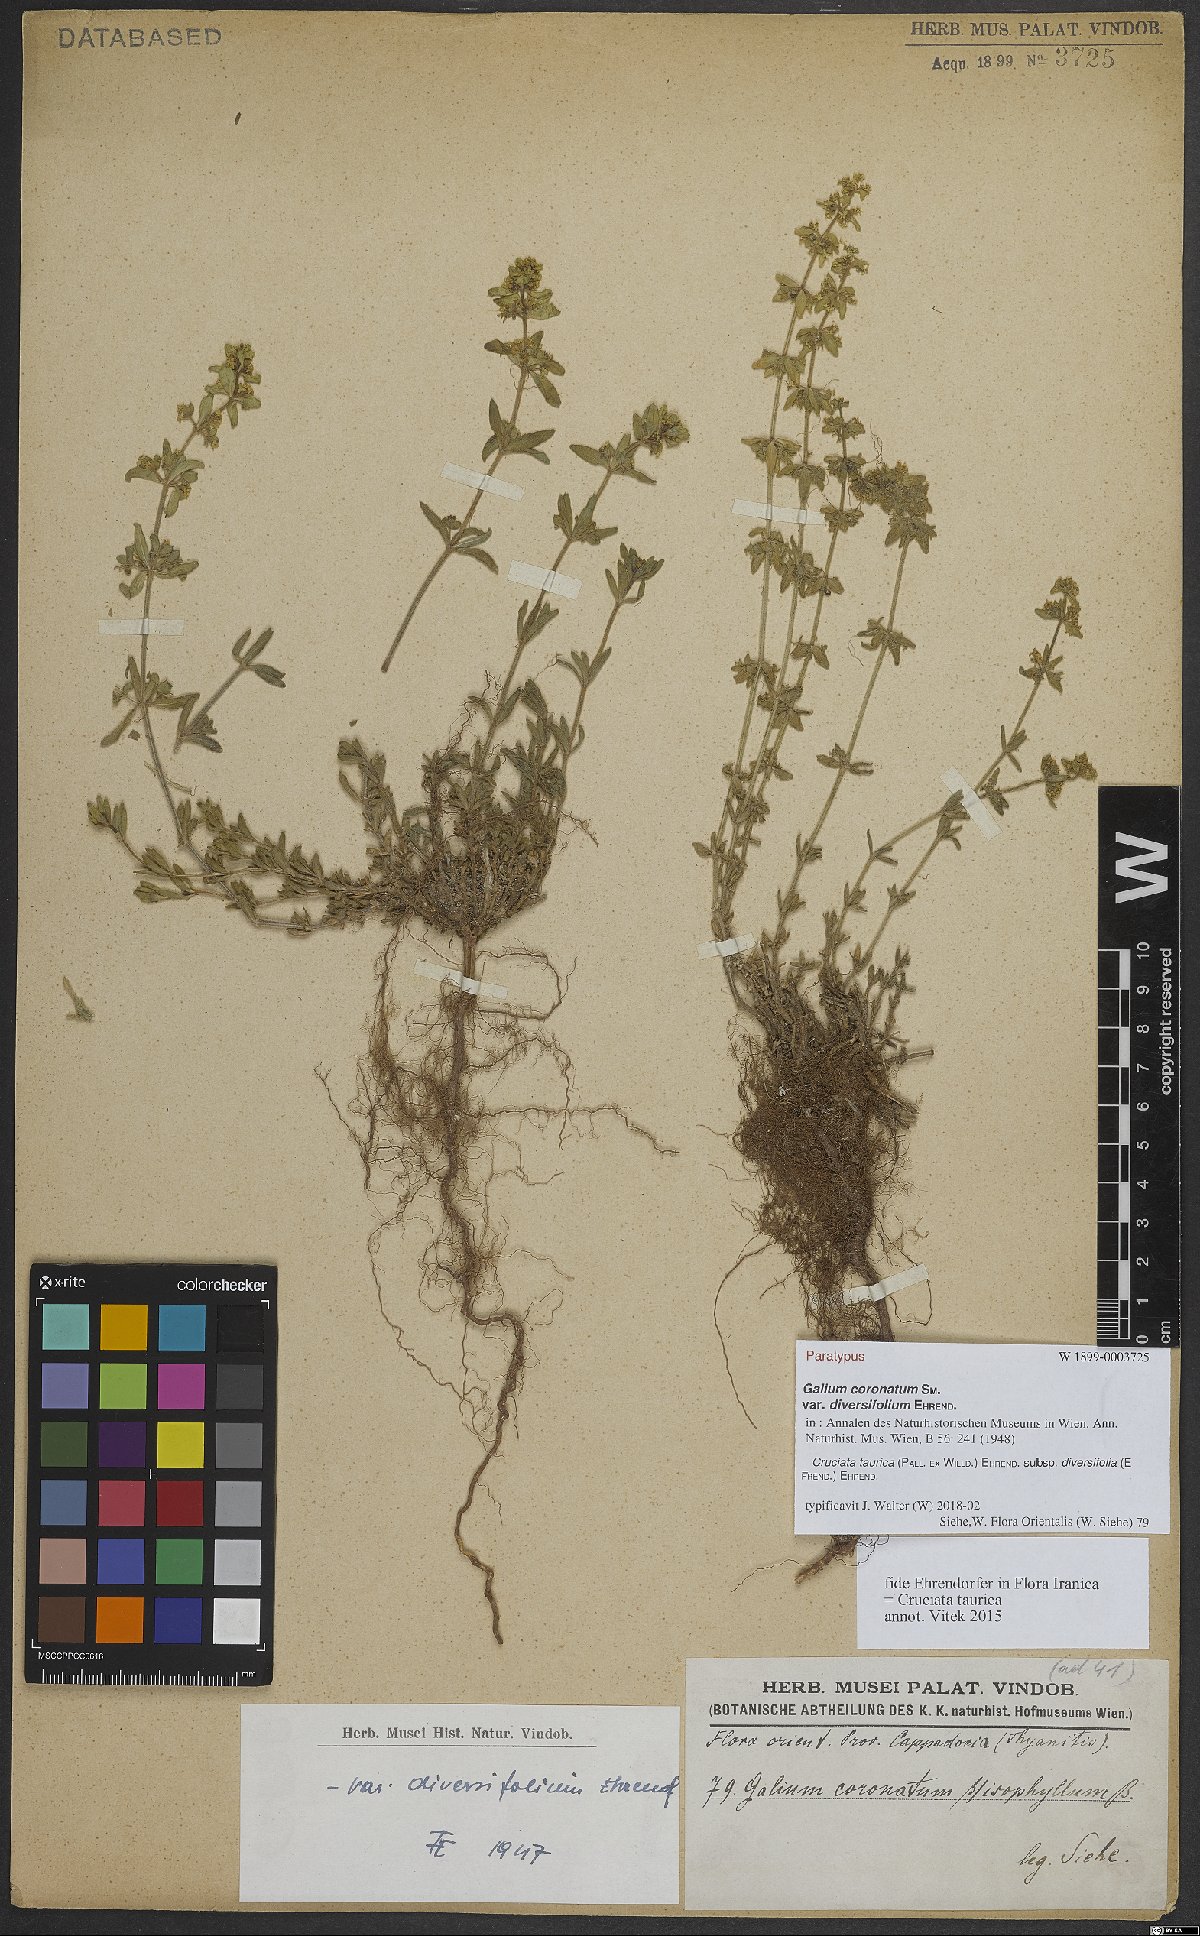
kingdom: Plantae
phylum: Tracheophyta
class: Magnoliopsida
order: Gentianales
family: Rubiaceae
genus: Cruciata
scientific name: Cruciata taurica
